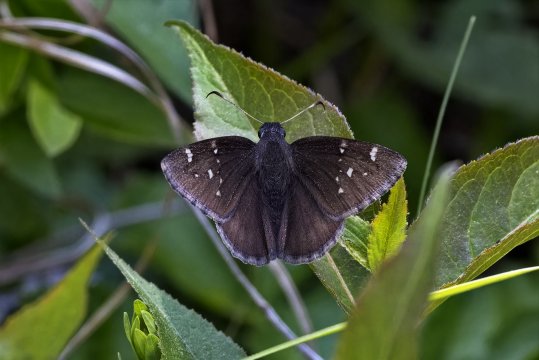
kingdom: Animalia
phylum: Arthropoda
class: Insecta
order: Lepidoptera
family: Hesperiidae
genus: Autochton
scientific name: Autochton
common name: Northern Cloudywing
